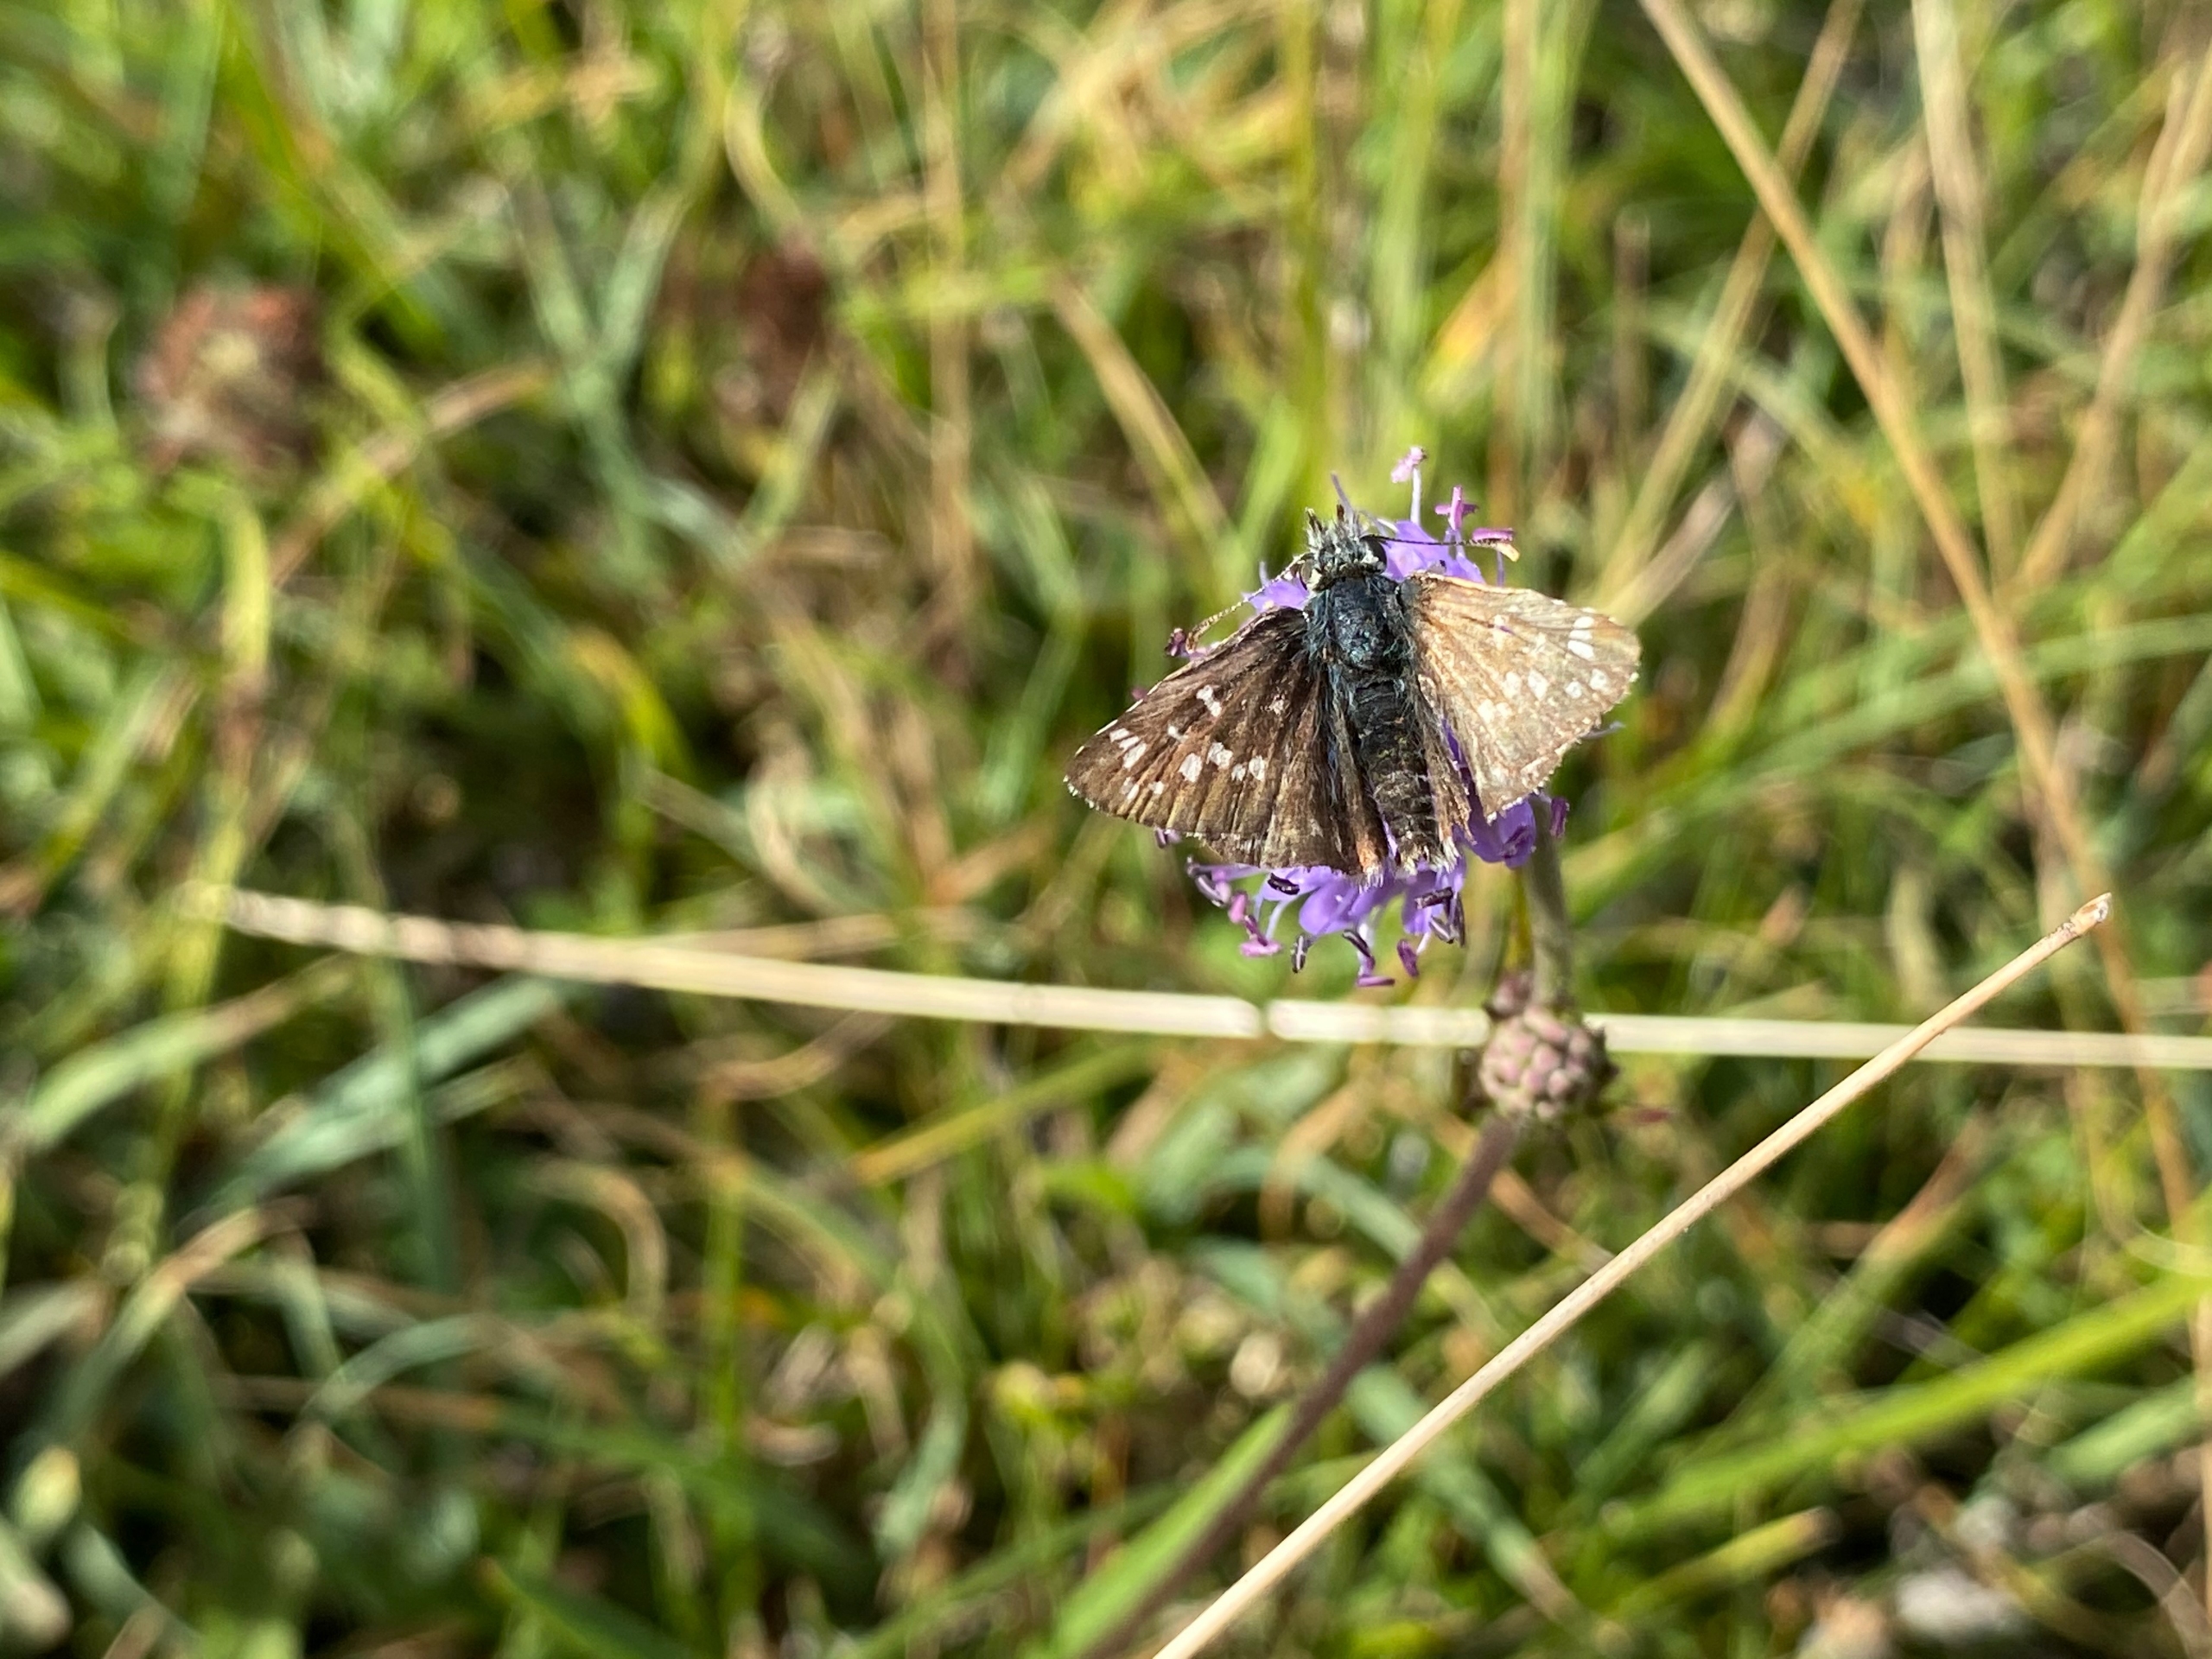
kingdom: Animalia
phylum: Arthropoda
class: Insecta
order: Lepidoptera
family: Hesperiidae
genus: Pyrgus
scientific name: Pyrgus armoricanus
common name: Fransk bredpande
